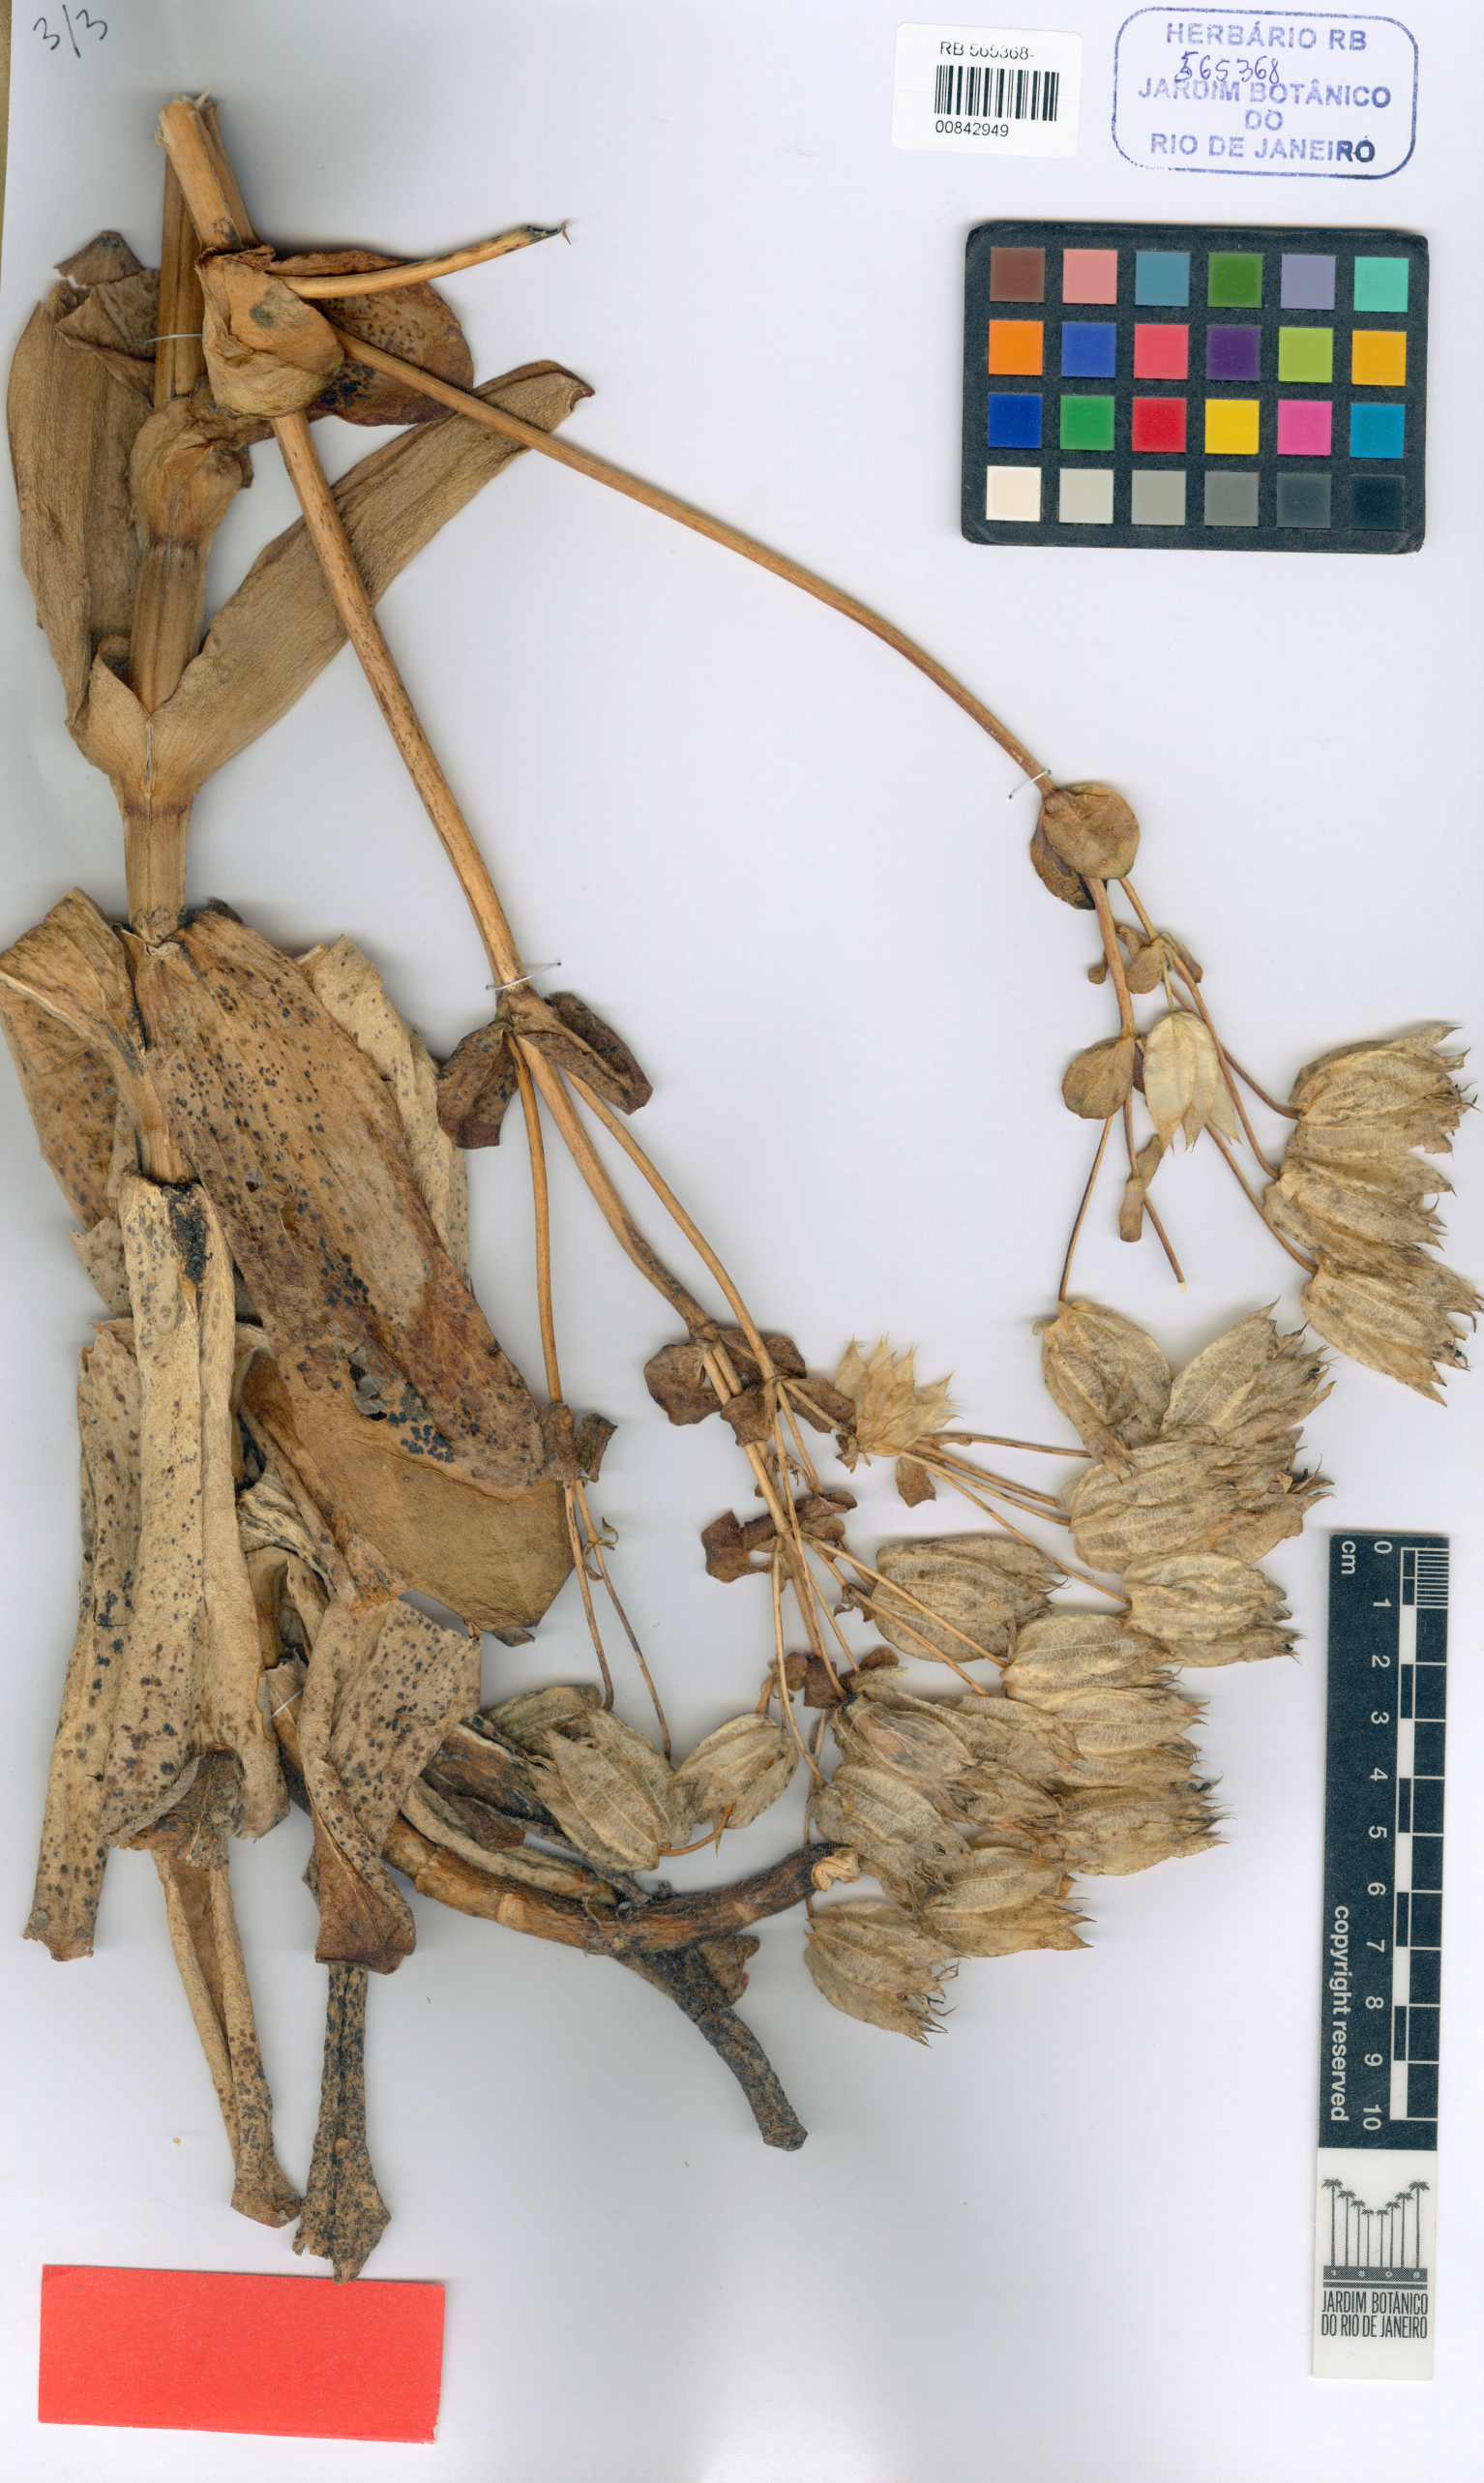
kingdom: Plantae
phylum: Tracheophyta
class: Magnoliopsida
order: Gentianales
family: Gentianaceae
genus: Prepusa
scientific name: Prepusa dibotrya
